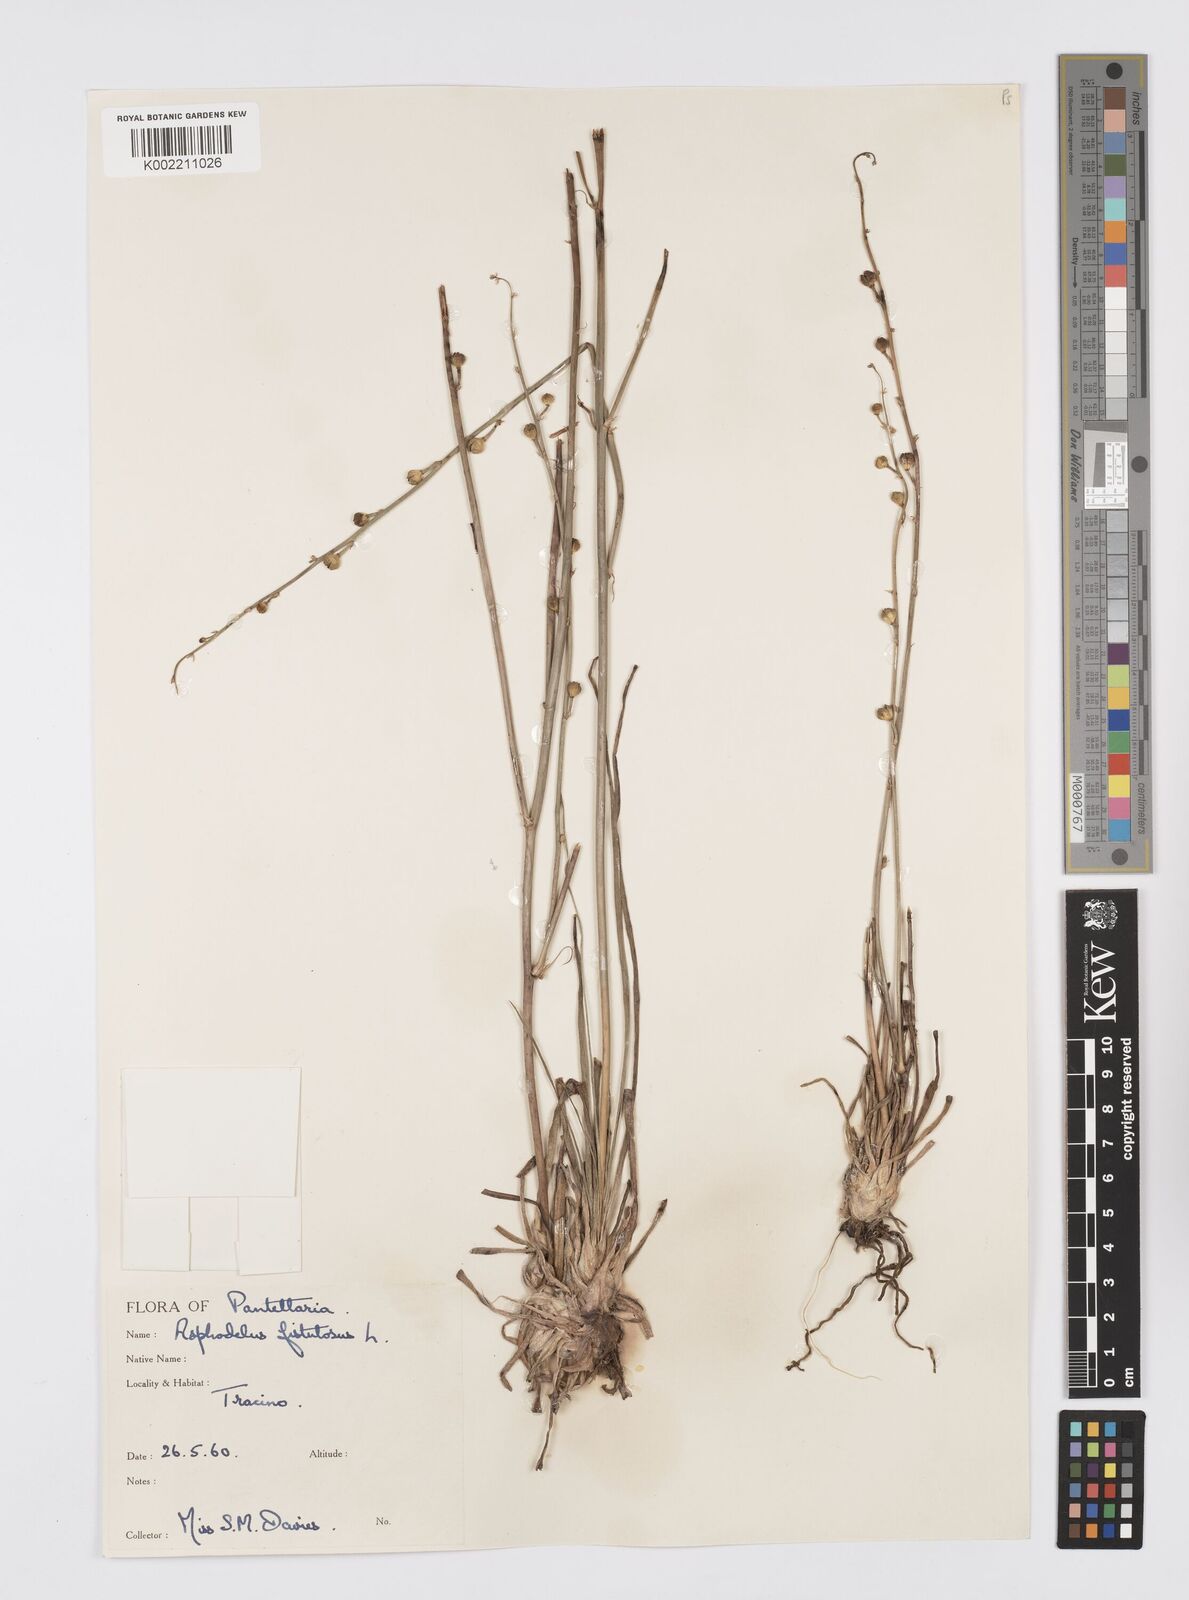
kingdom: Plantae
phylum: Tracheophyta
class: Liliopsida
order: Asparagales
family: Asphodelaceae
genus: Asphodelus
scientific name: Asphodelus fistulosus
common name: Onionweed
